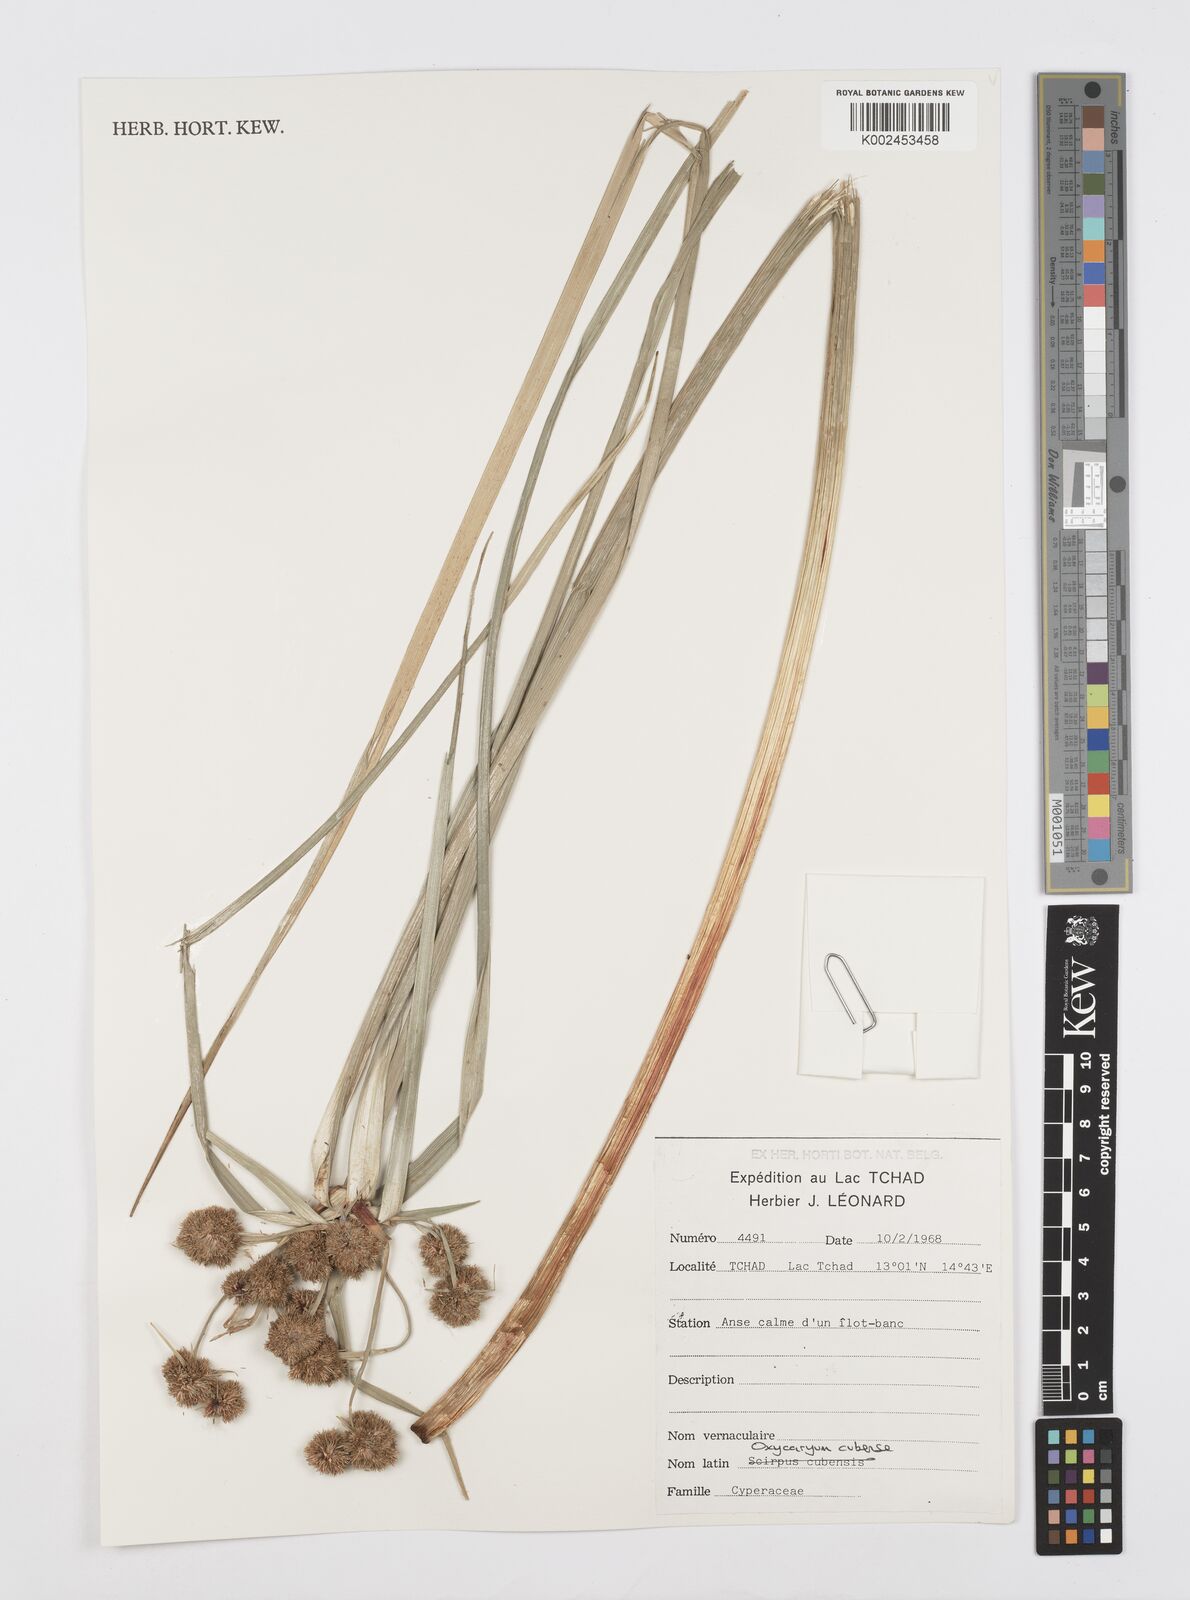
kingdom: Plantae
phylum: Tracheophyta
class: Liliopsida
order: Poales
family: Cyperaceae
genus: Cyperus
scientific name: Cyperus elegans
